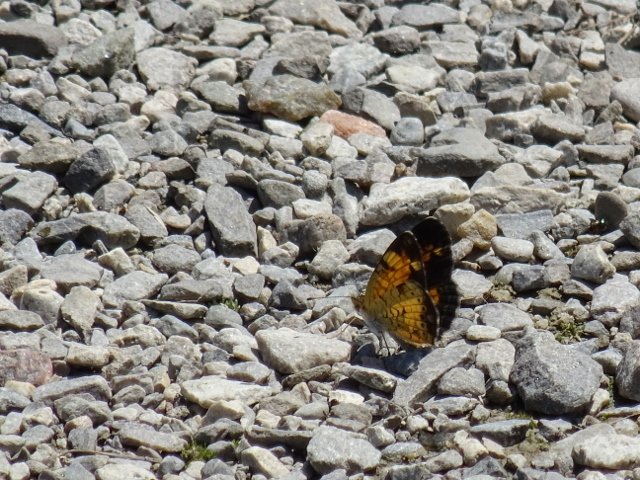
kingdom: Animalia
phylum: Arthropoda
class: Insecta
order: Lepidoptera
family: Nymphalidae
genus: Phyciodes
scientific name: Phyciodes tharos
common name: Pearl Crescent
